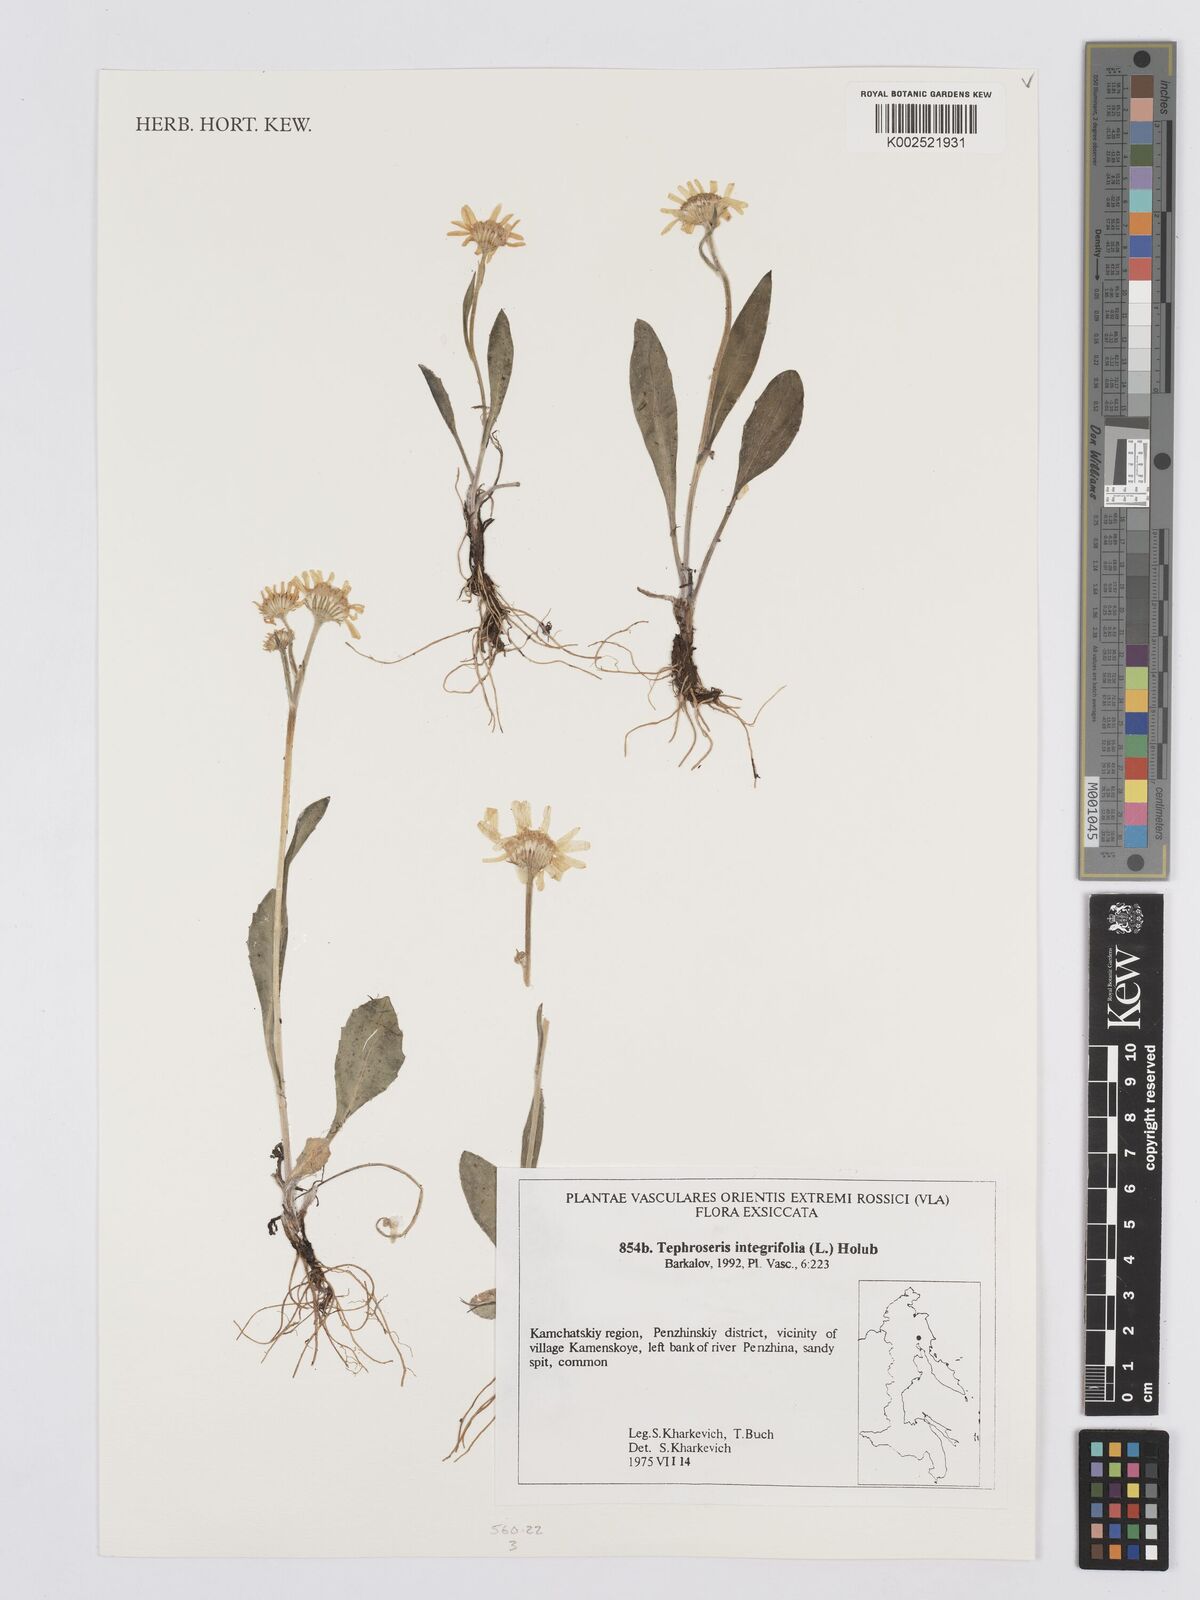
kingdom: Plantae
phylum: Tracheophyta
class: Magnoliopsida
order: Asterales
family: Asteraceae
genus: Tephroseris
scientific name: Tephroseris integrifolia
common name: Field fleawort
